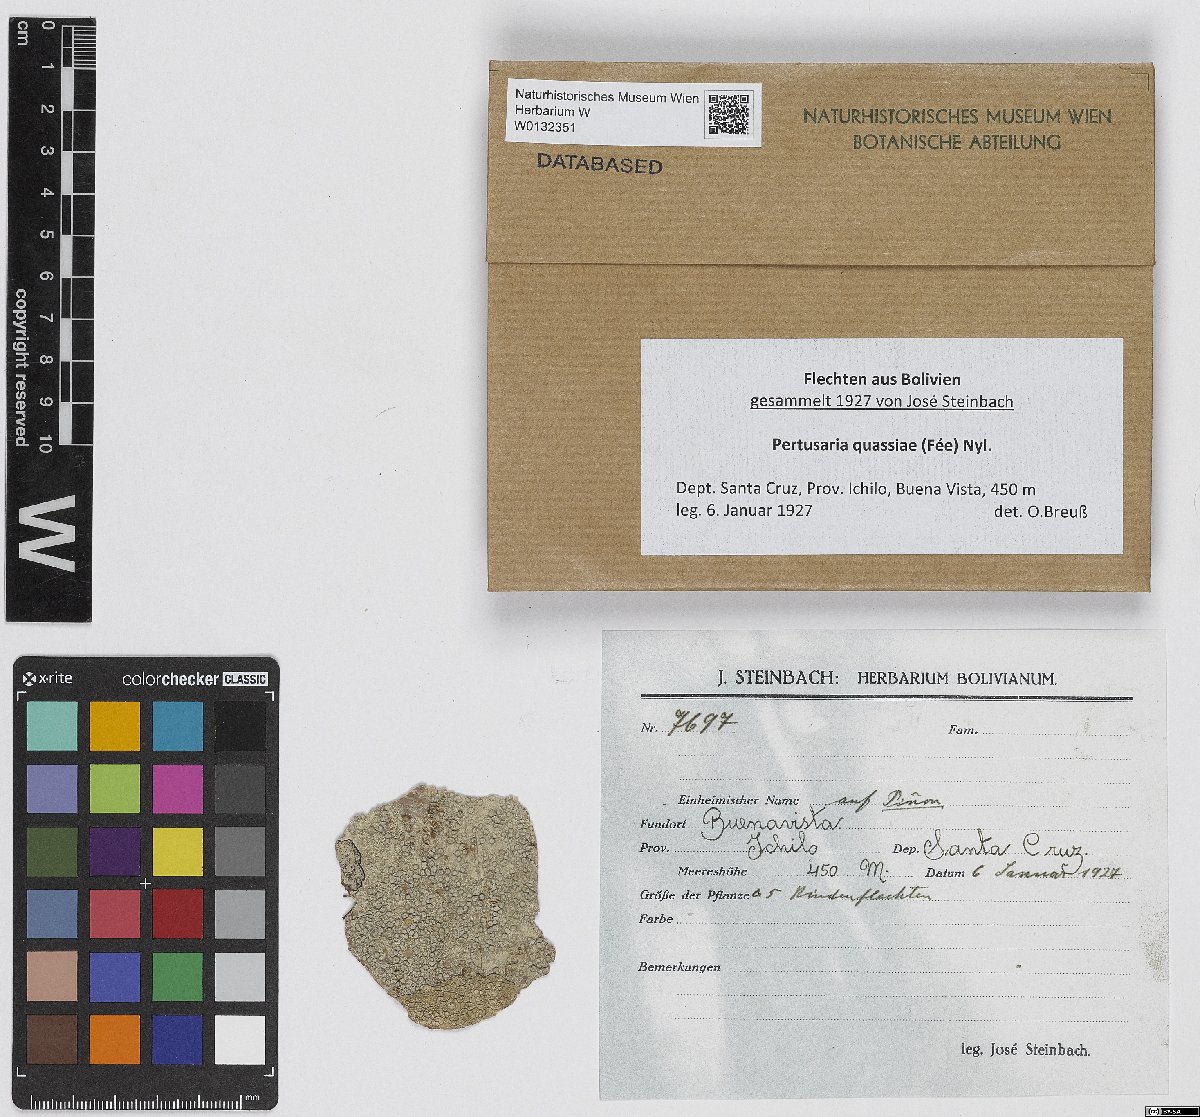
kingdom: Fungi
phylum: Ascomycota
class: Lecanoromycetes
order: Pertusariales
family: Pertusariaceae
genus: Pertusaria
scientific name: Pertusaria quassiae
